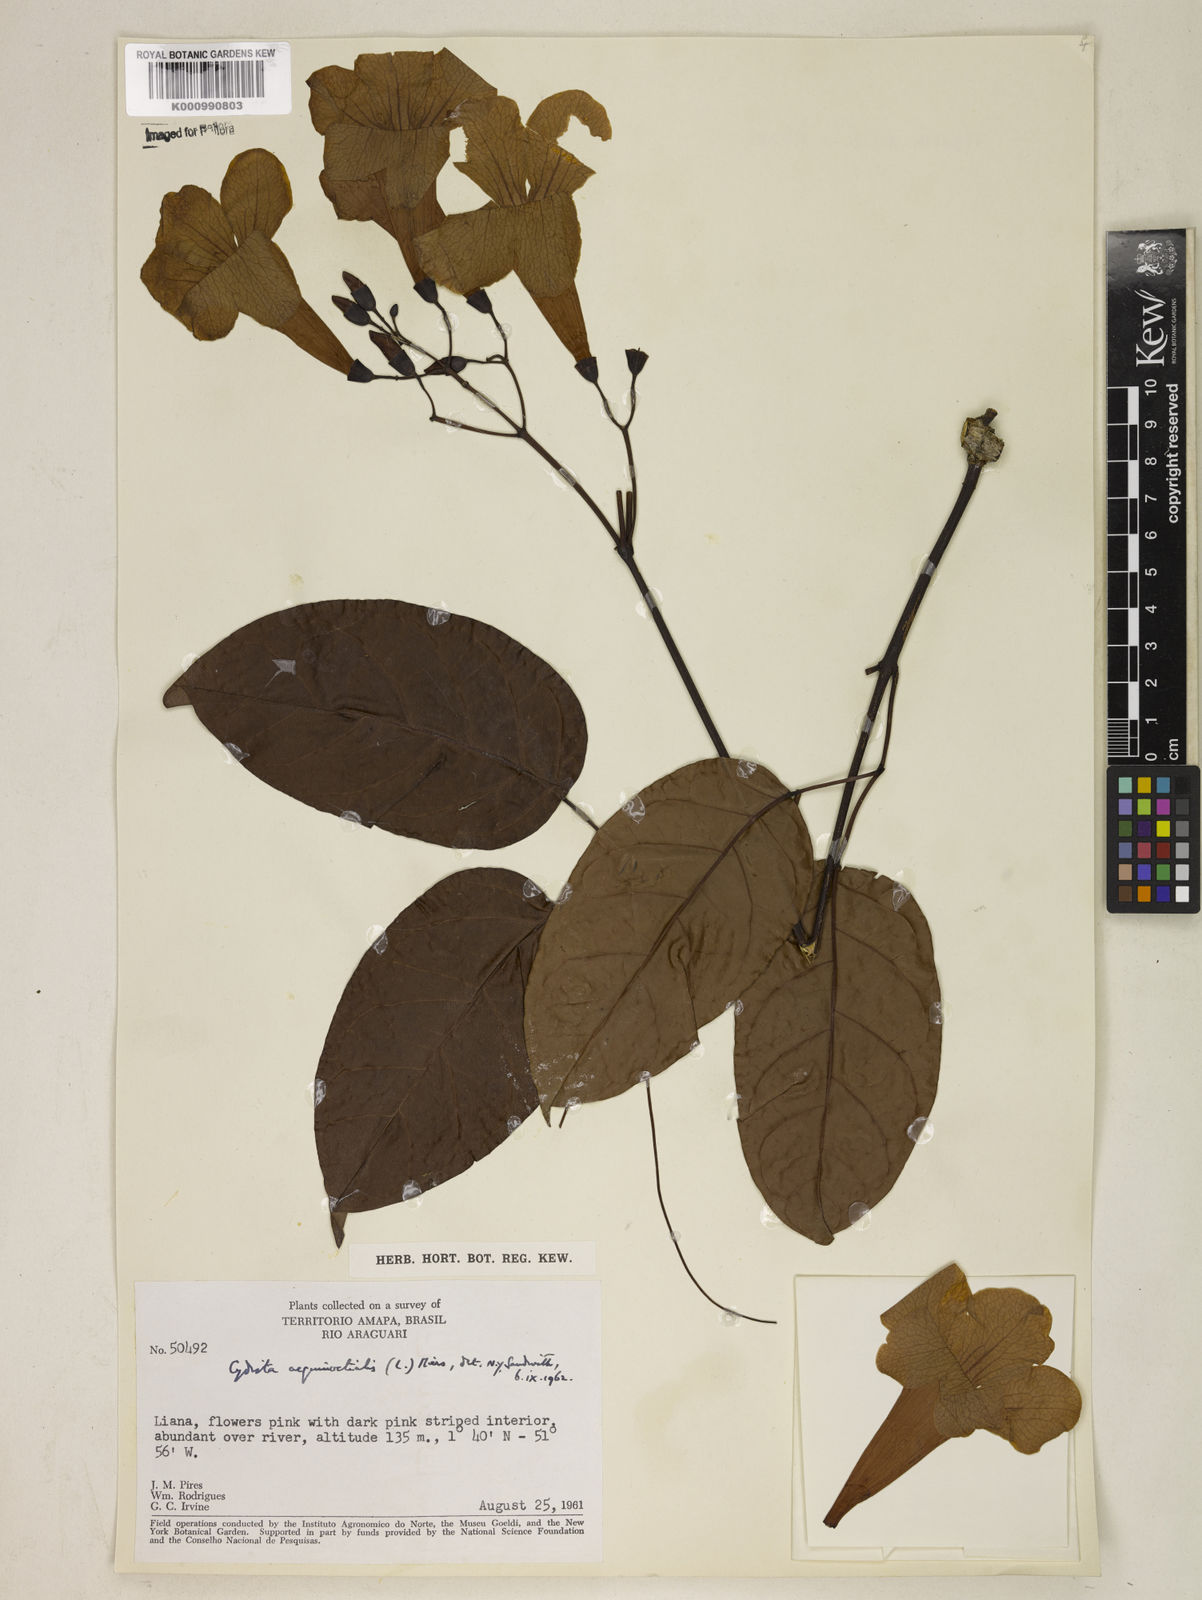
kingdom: Plantae
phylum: Tracheophyta
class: Magnoliopsida
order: Lamiales
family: Bignoniaceae
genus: Bignonia
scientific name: Bignonia aequinoctialis
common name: Garlicvine
